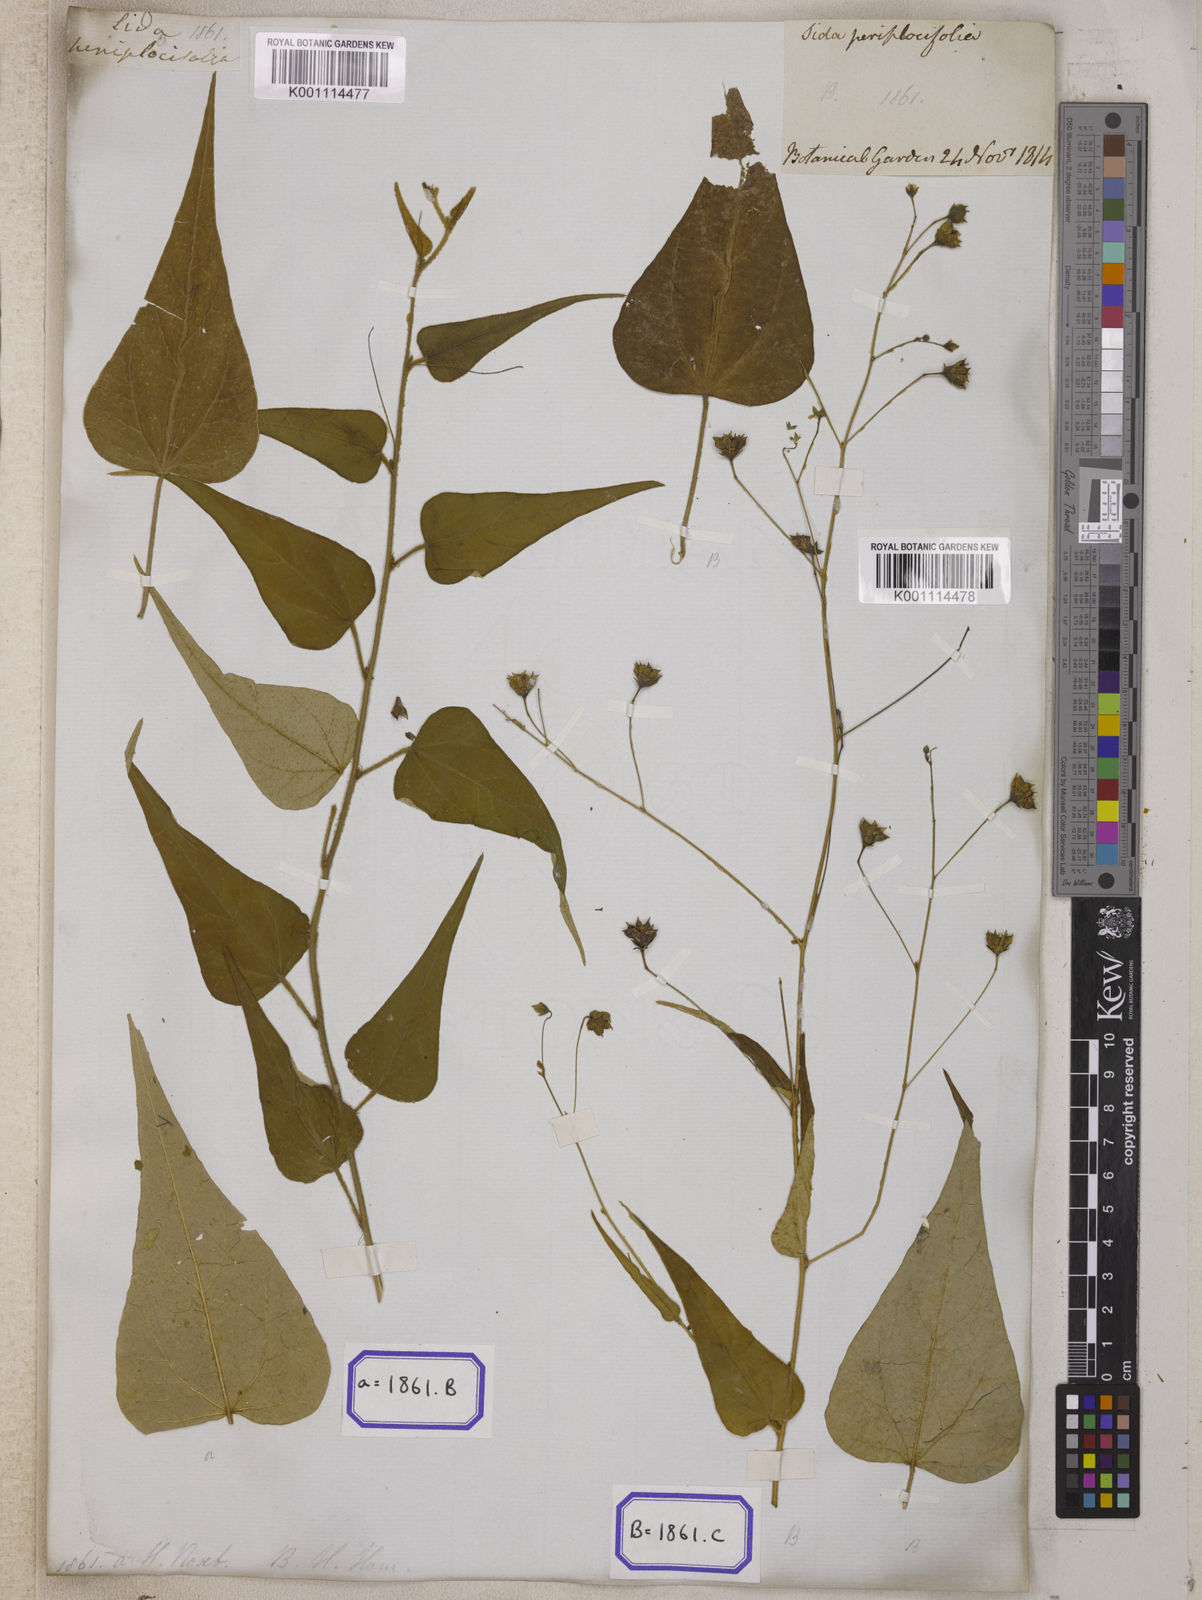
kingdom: Plantae
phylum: Tracheophyta
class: Magnoliopsida
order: Malvales
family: Malvaceae
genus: Wissadula
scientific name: Wissadula periplocifolia
